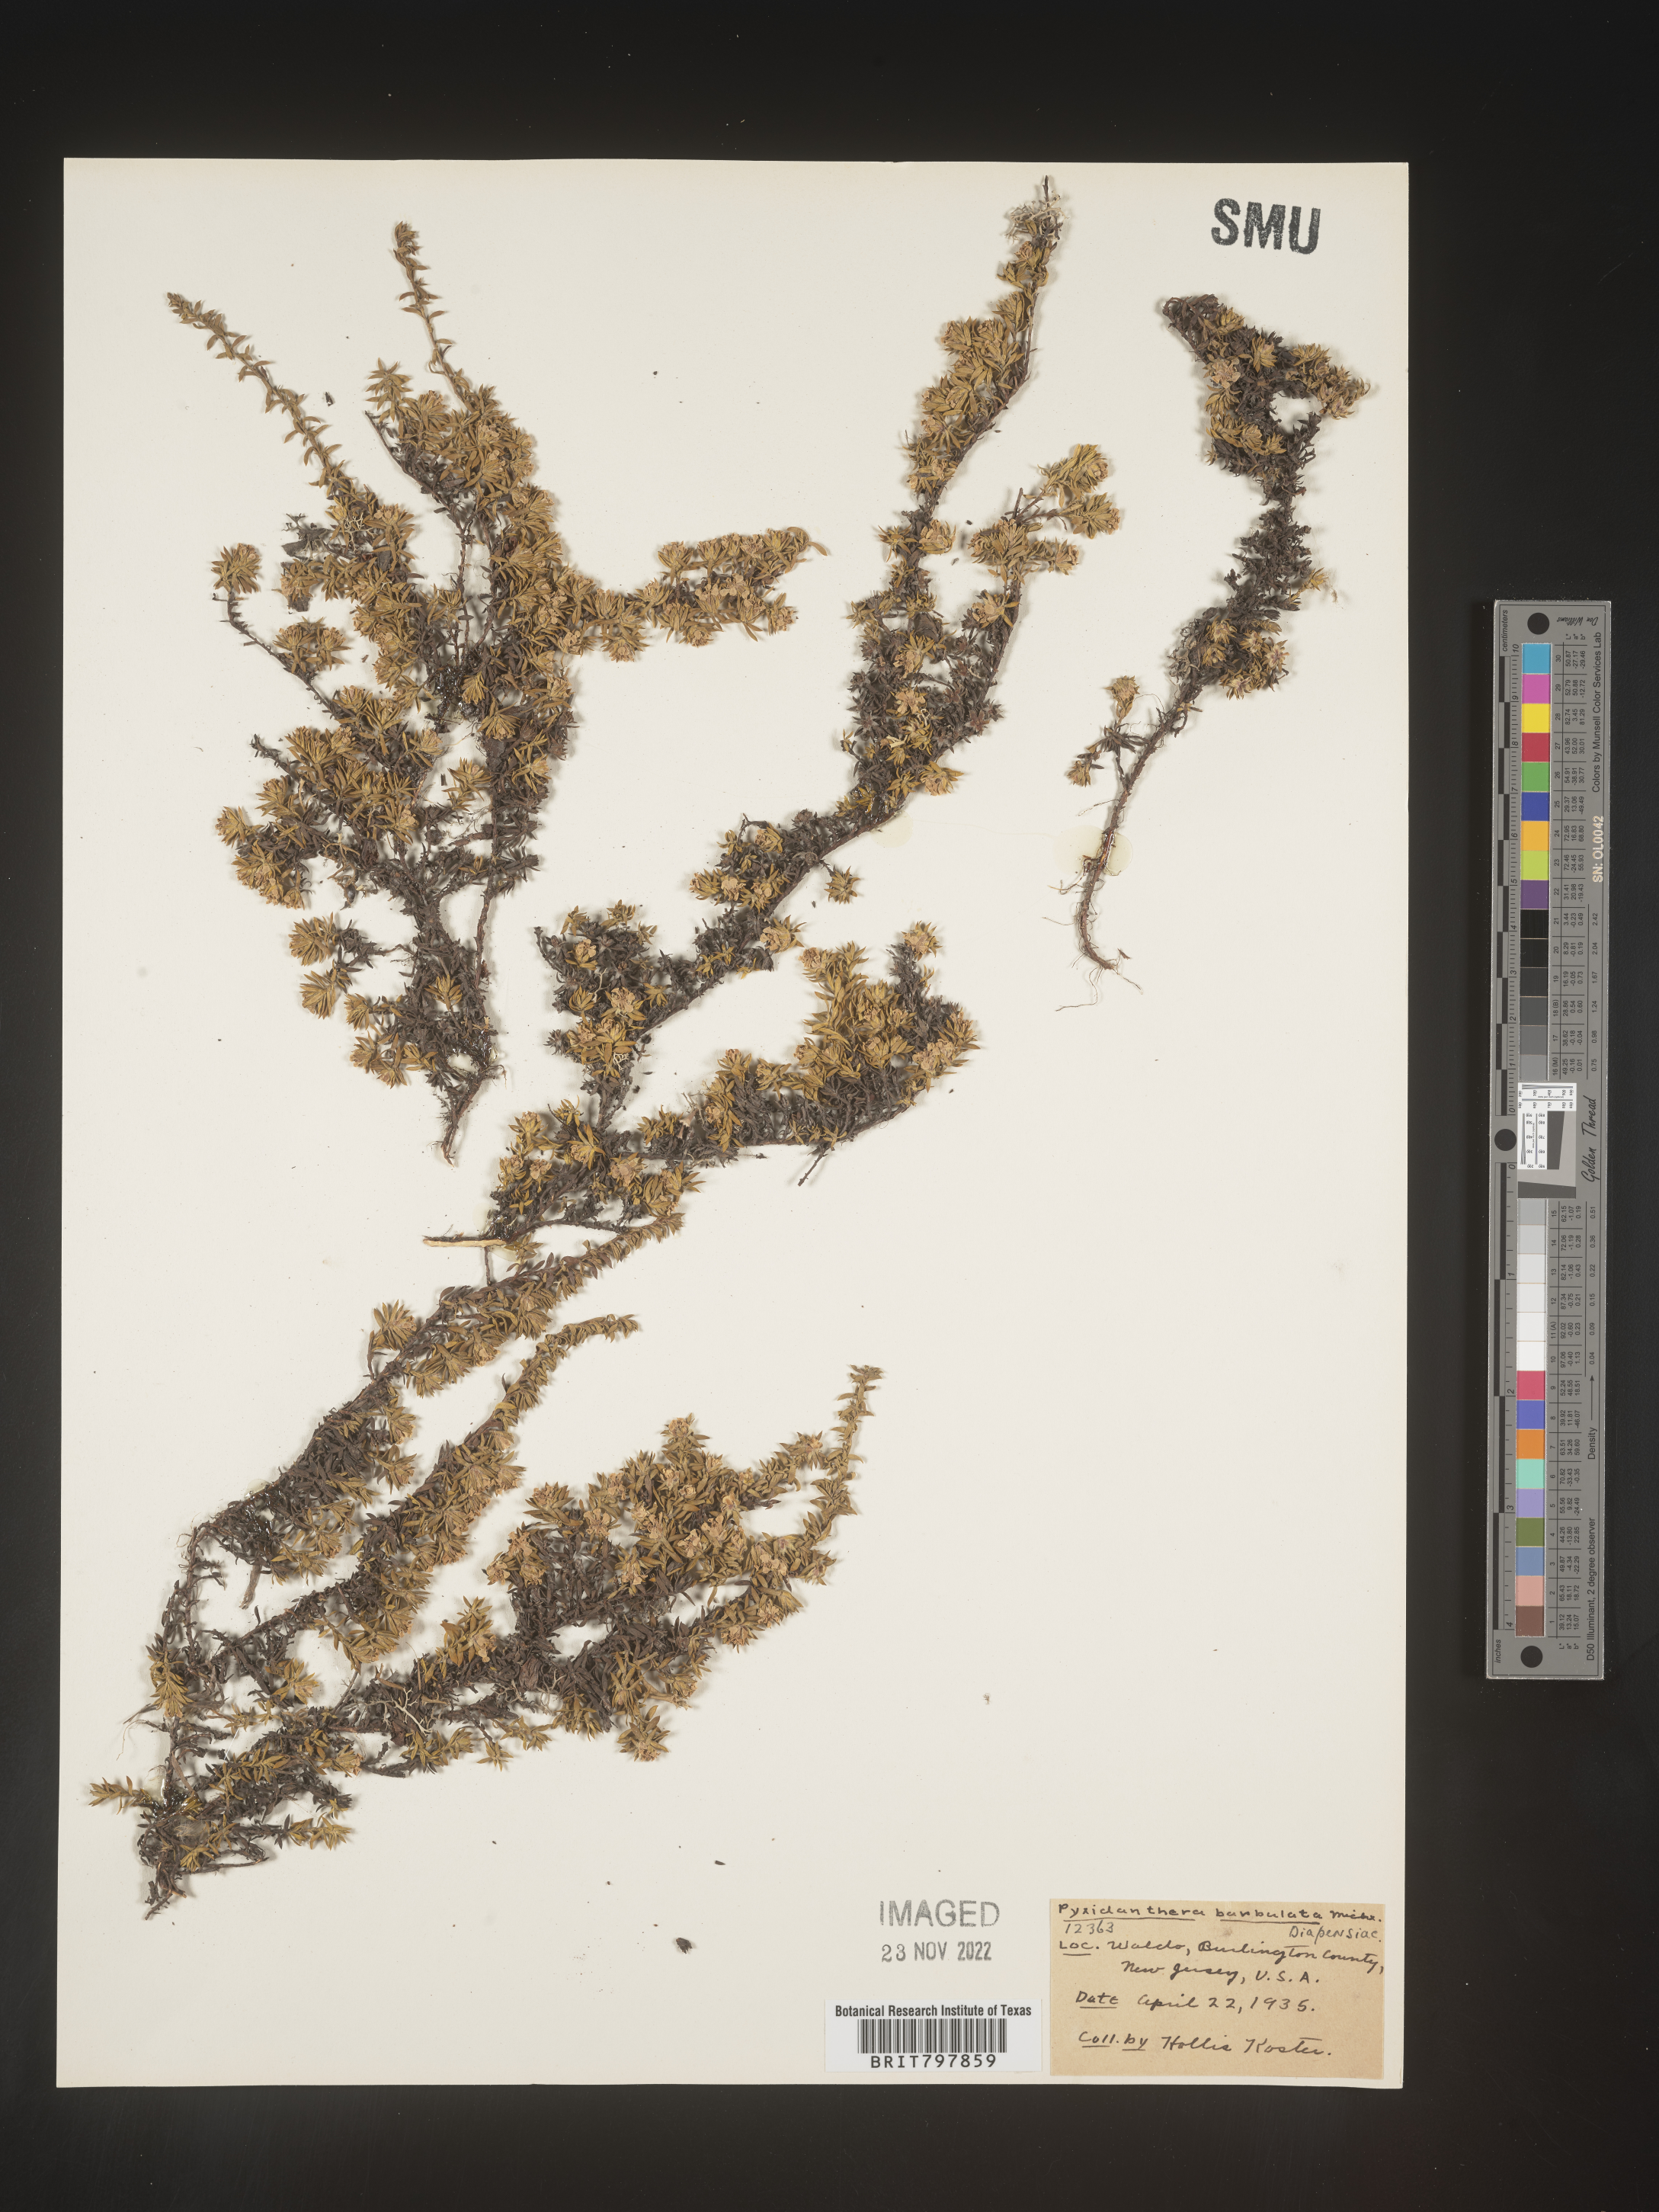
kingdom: Plantae
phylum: Tracheophyta
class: Magnoliopsida
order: Ericales
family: Diapensiaceae
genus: Pyxidanthera
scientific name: Pyxidanthera barbulata
